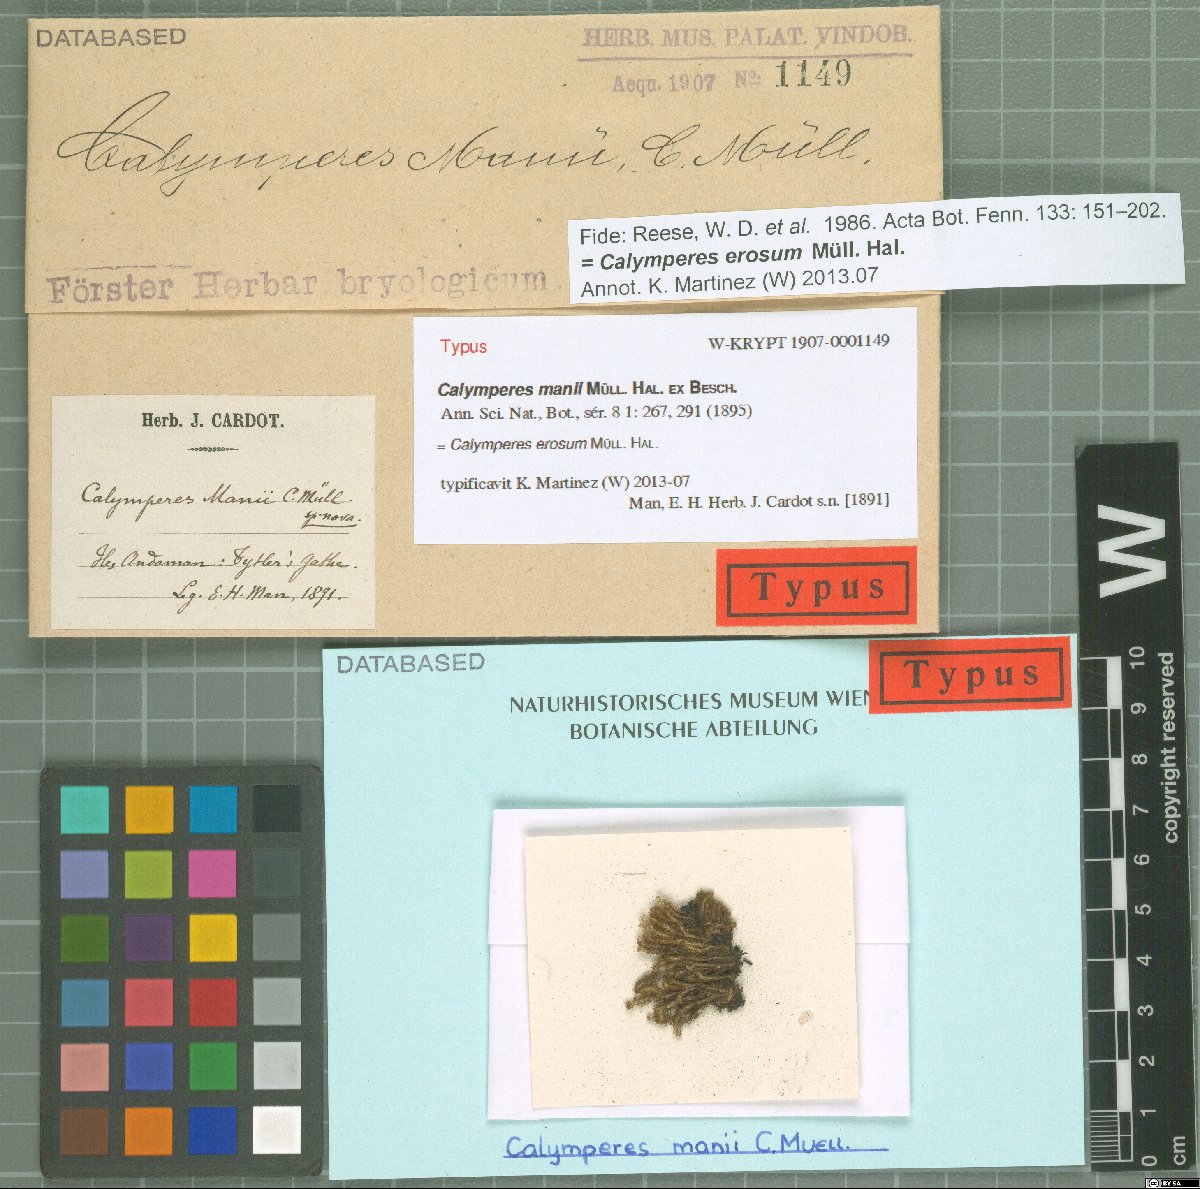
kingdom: Plantae
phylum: Bryophyta
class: Bryopsida
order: Dicranales
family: Calymperaceae
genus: Calymperes
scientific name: Calymperes erosum
